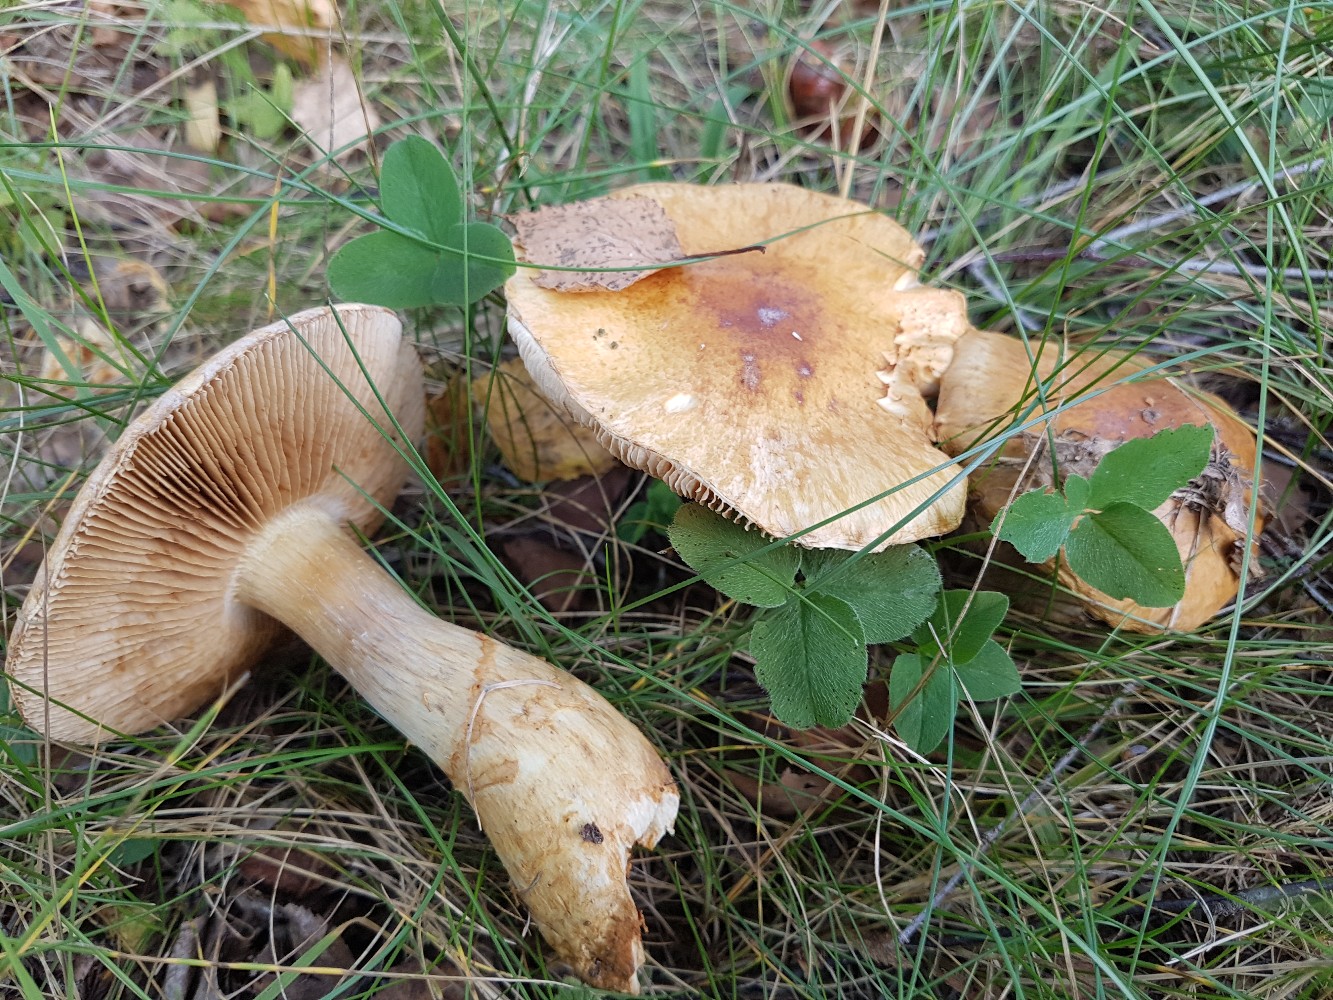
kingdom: Fungi
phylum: Basidiomycota
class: Agaricomycetes
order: Agaricales
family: Cortinariaceae
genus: Phlegmacium
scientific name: Phlegmacium triumphans
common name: gulbæltet slørhat
